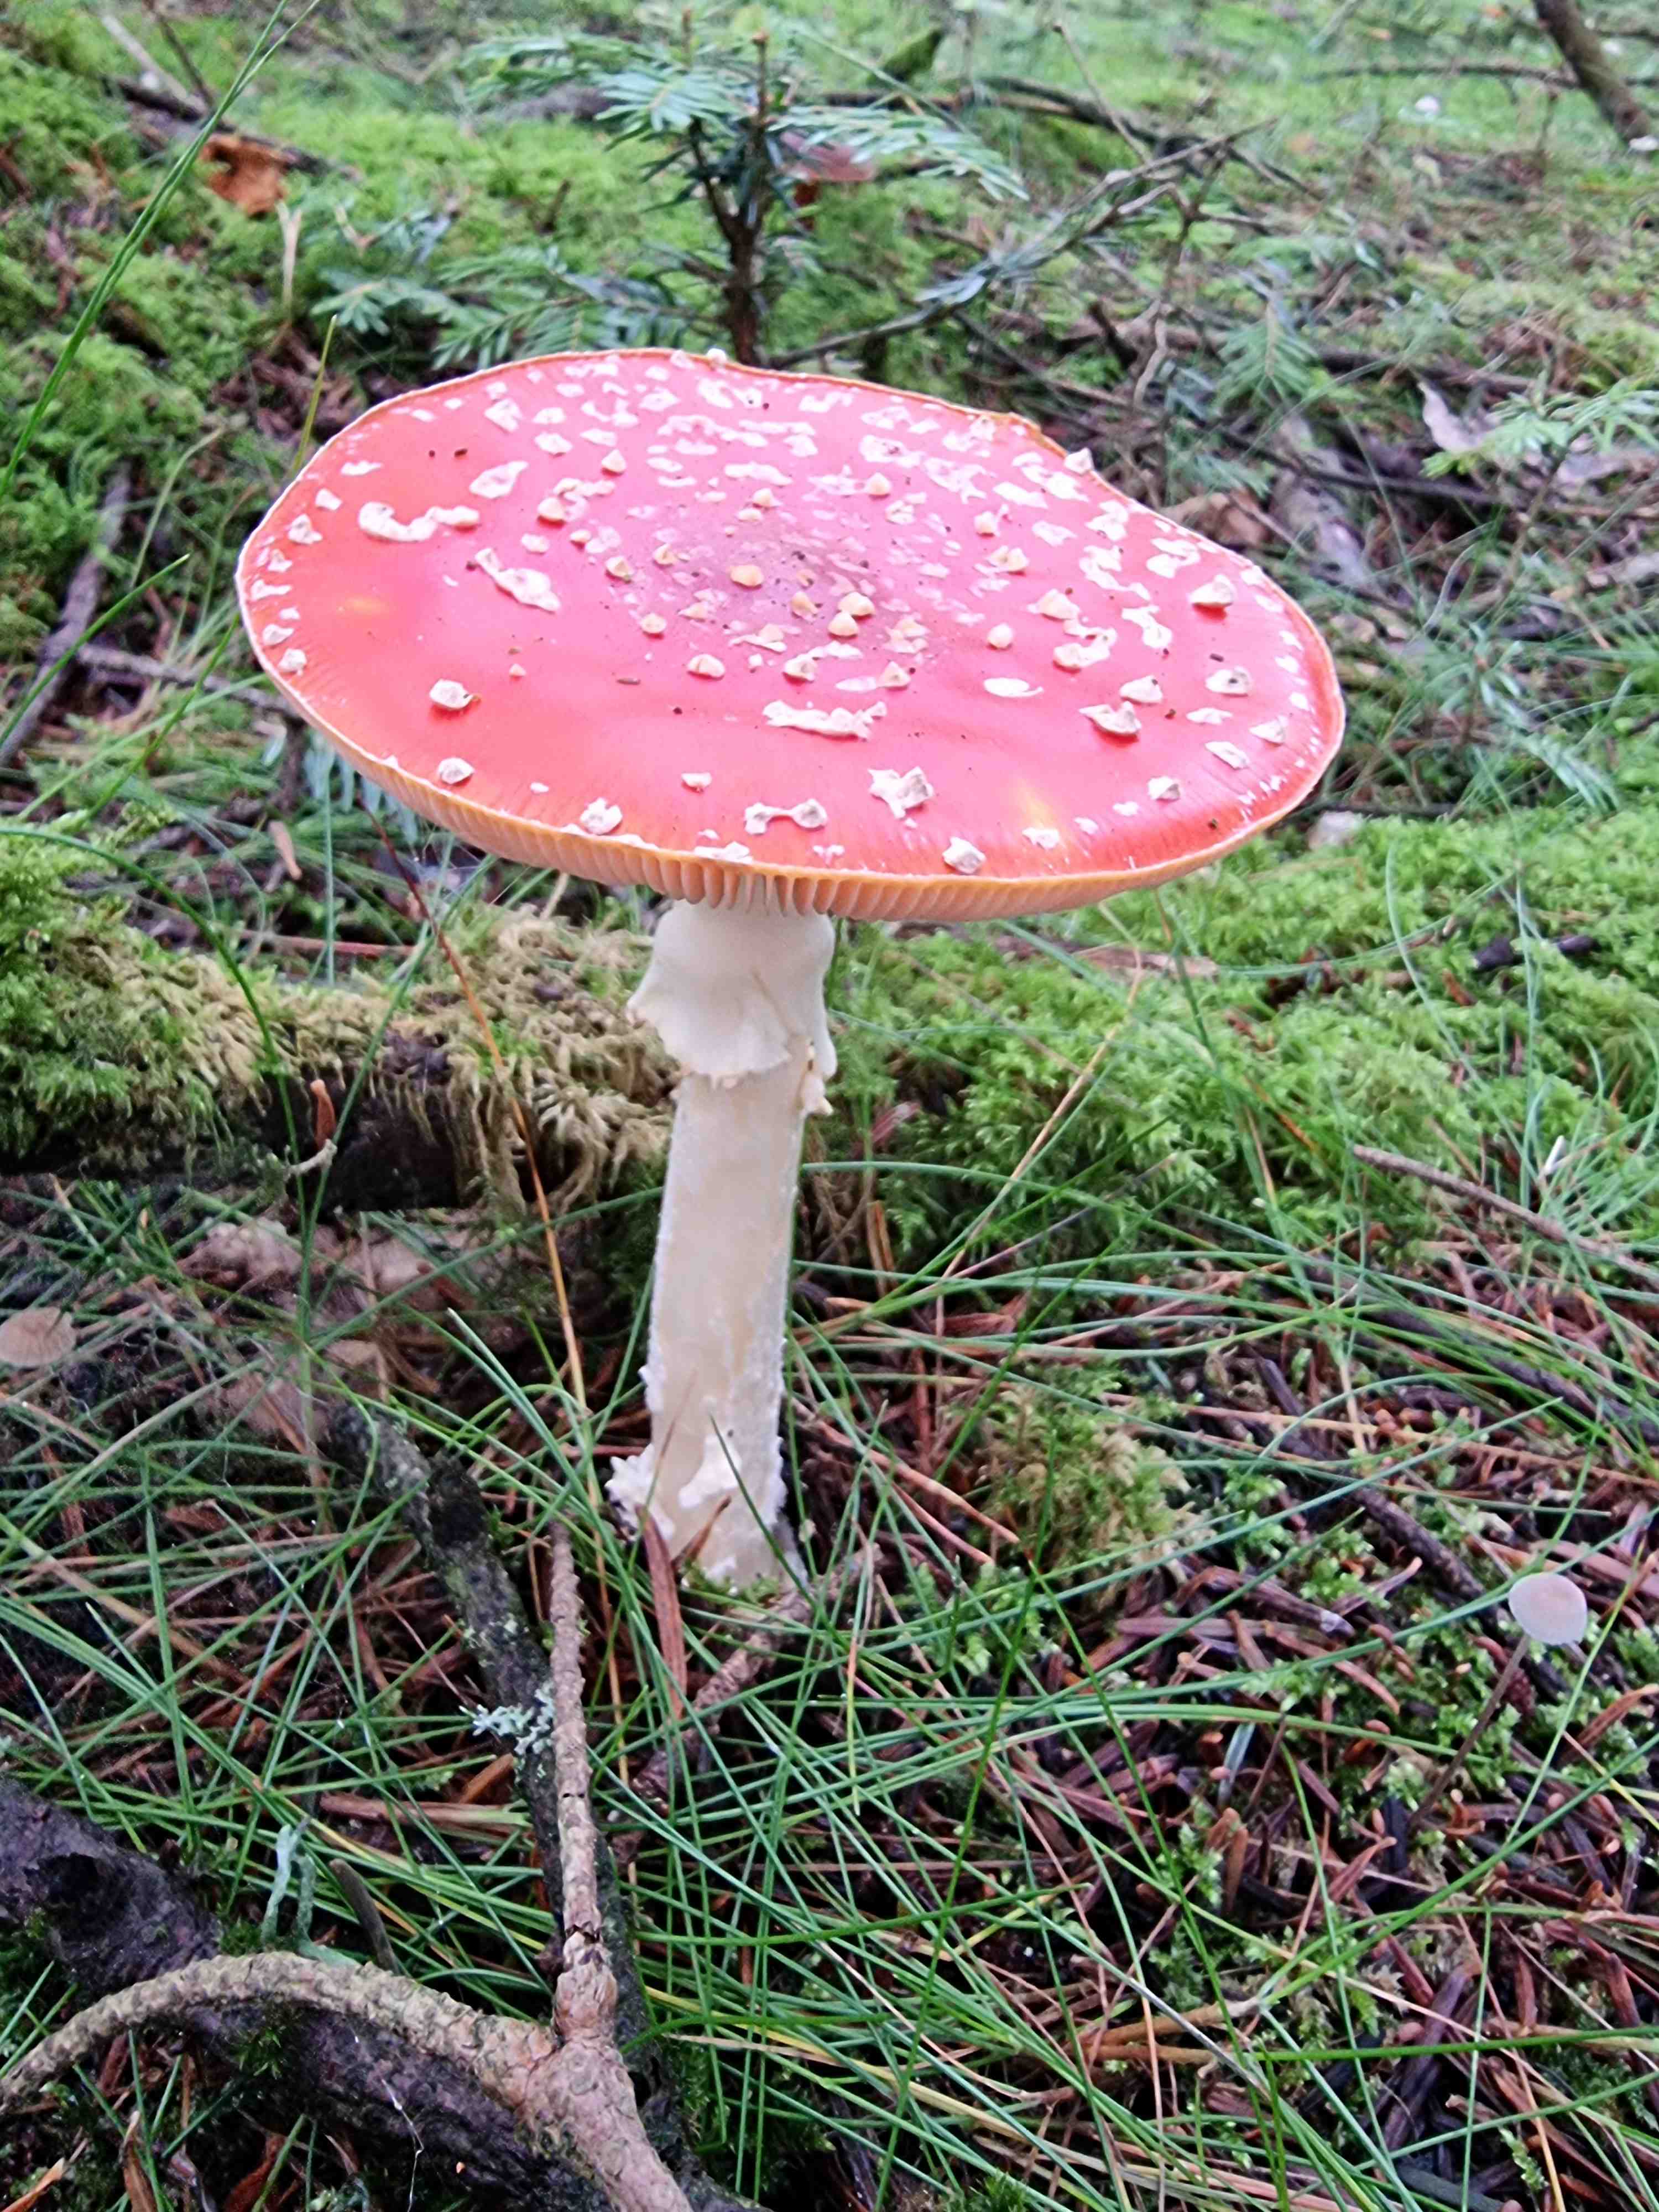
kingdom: Fungi
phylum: Basidiomycota
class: Agaricomycetes
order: Agaricales
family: Amanitaceae
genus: Amanita
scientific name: Amanita muscaria
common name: rød fluesvamp
